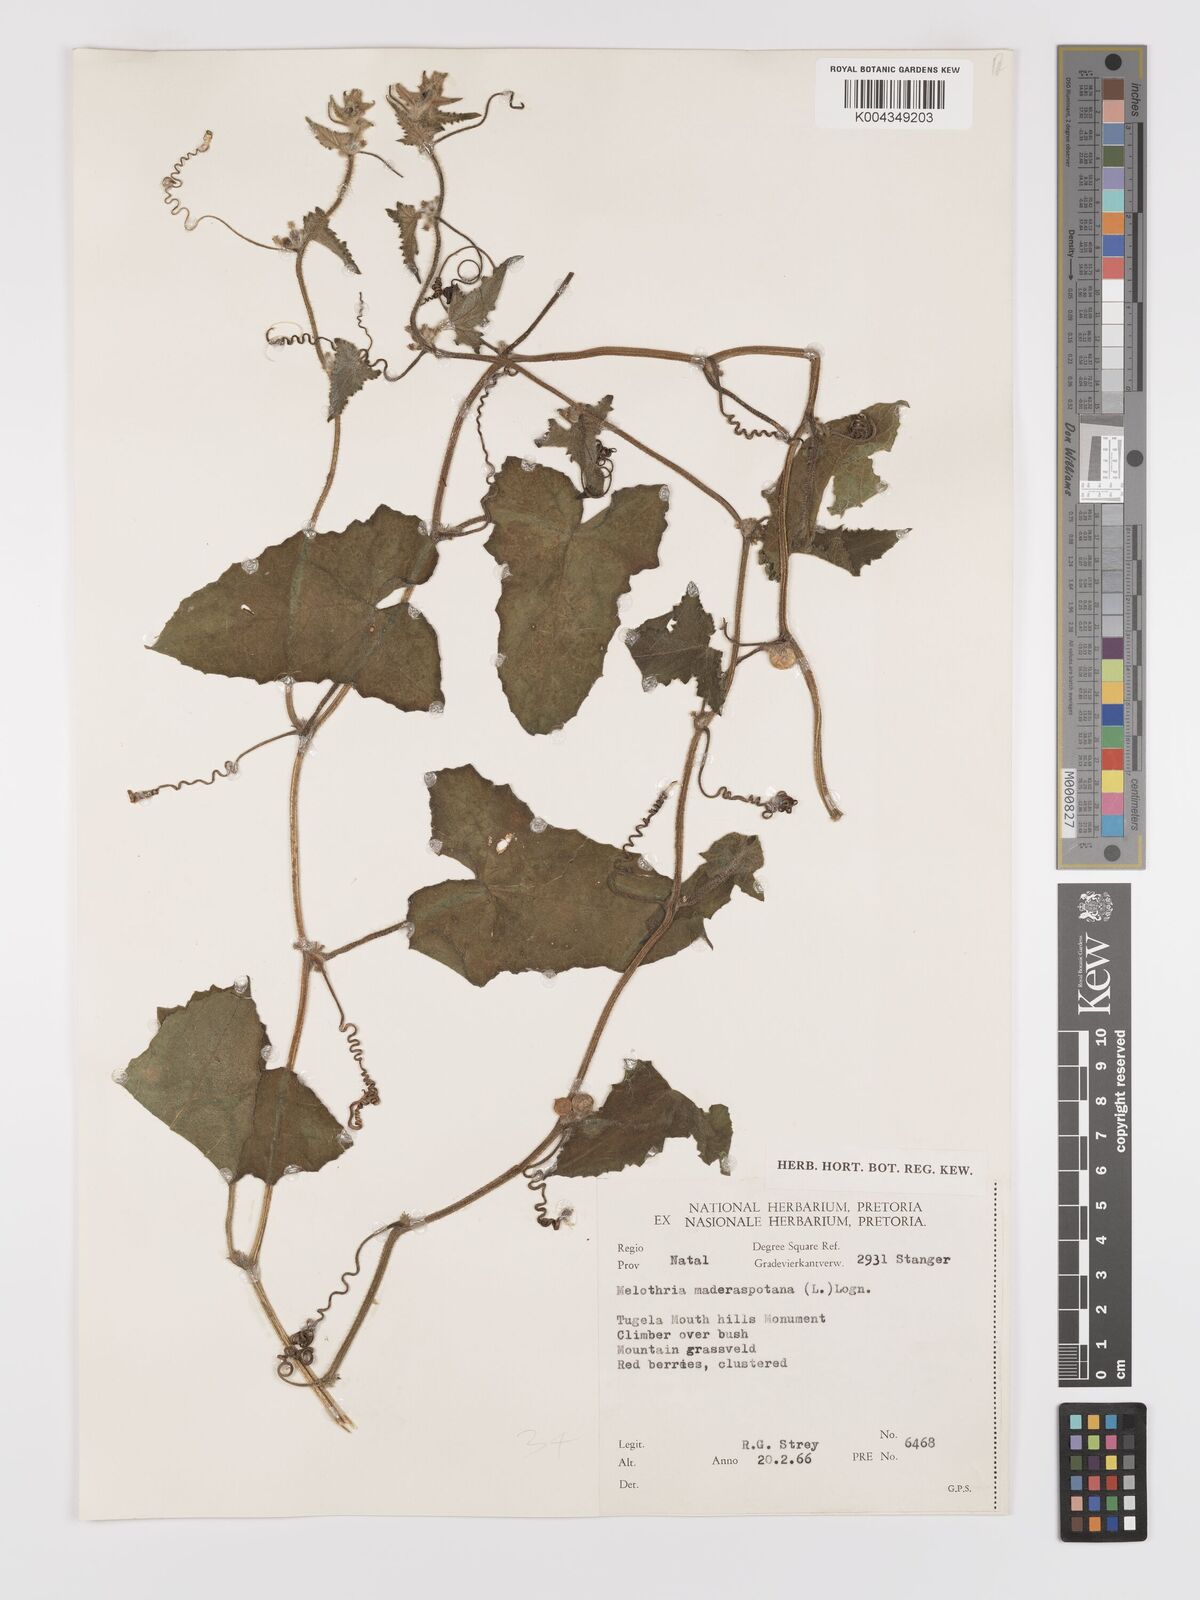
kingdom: Plantae
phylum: Tracheophyta
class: Magnoliopsida
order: Cucurbitales
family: Cucurbitaceae
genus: Cucumis
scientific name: Cucumis maderaspatanus
